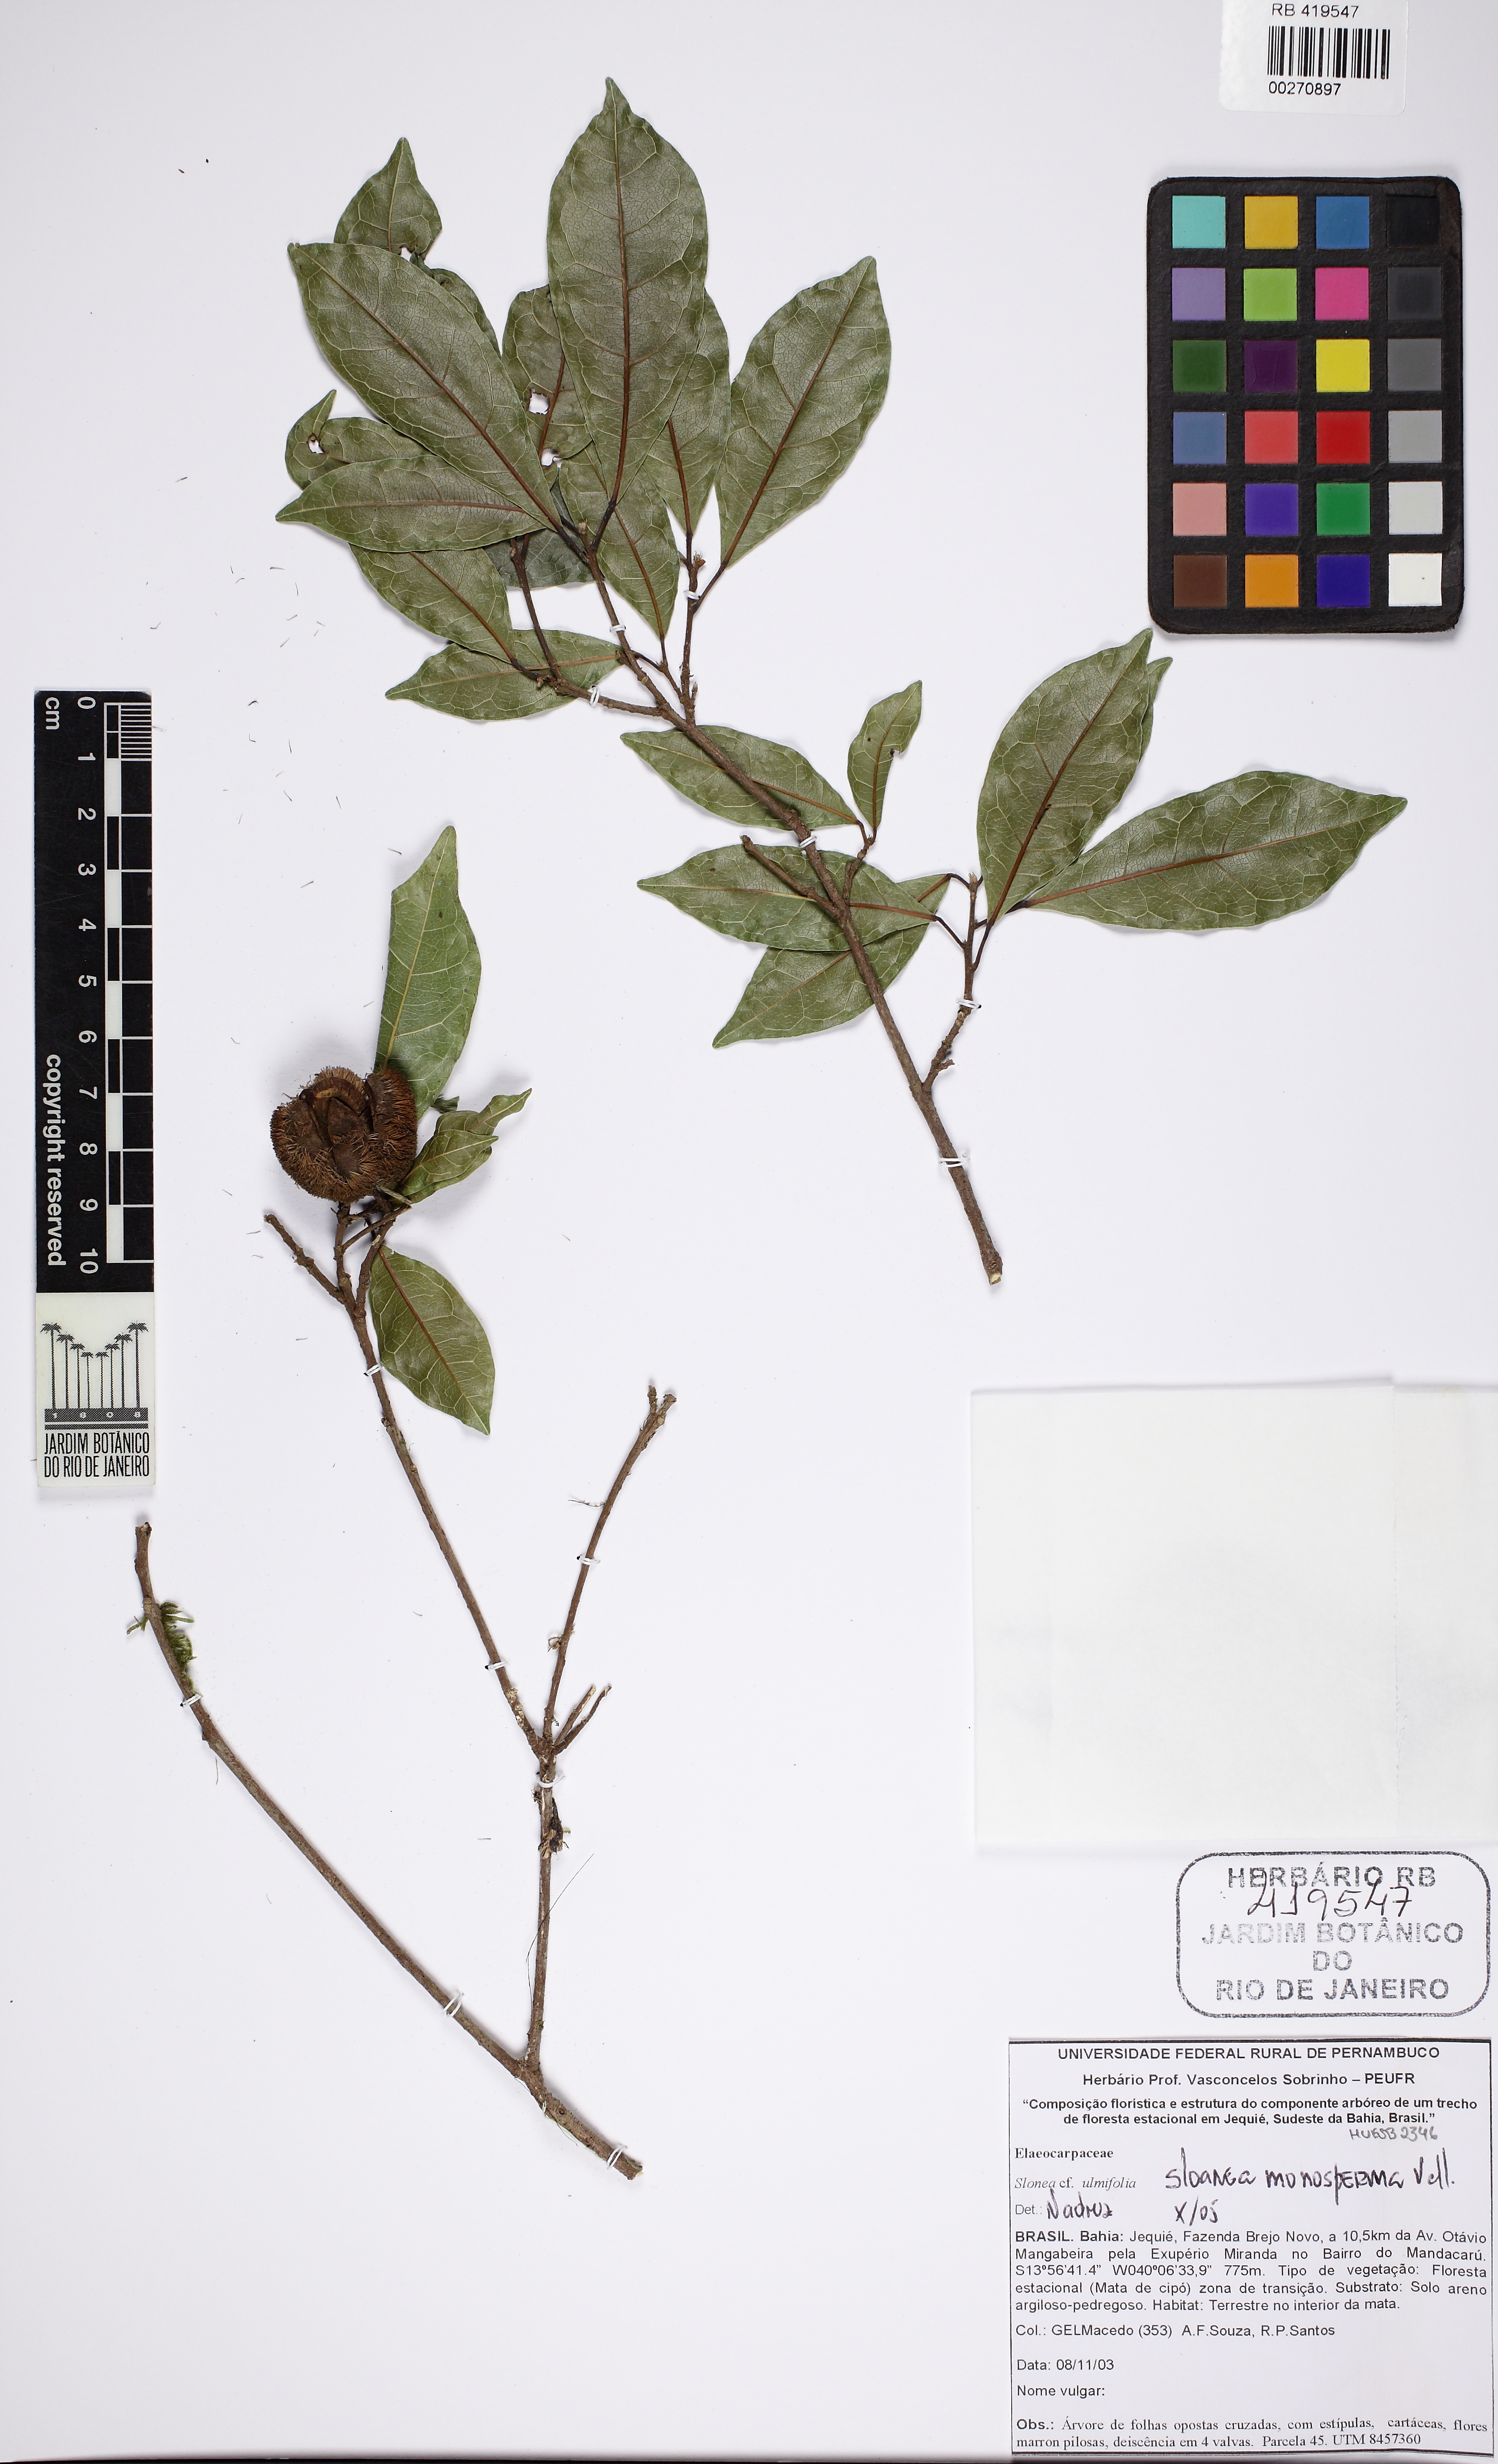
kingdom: Plantae
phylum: Tracheophyta
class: Magnoliopsida
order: Oxalidales
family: Elaeocarpaceae
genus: Sloanea
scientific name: Sloanea hirsuta
